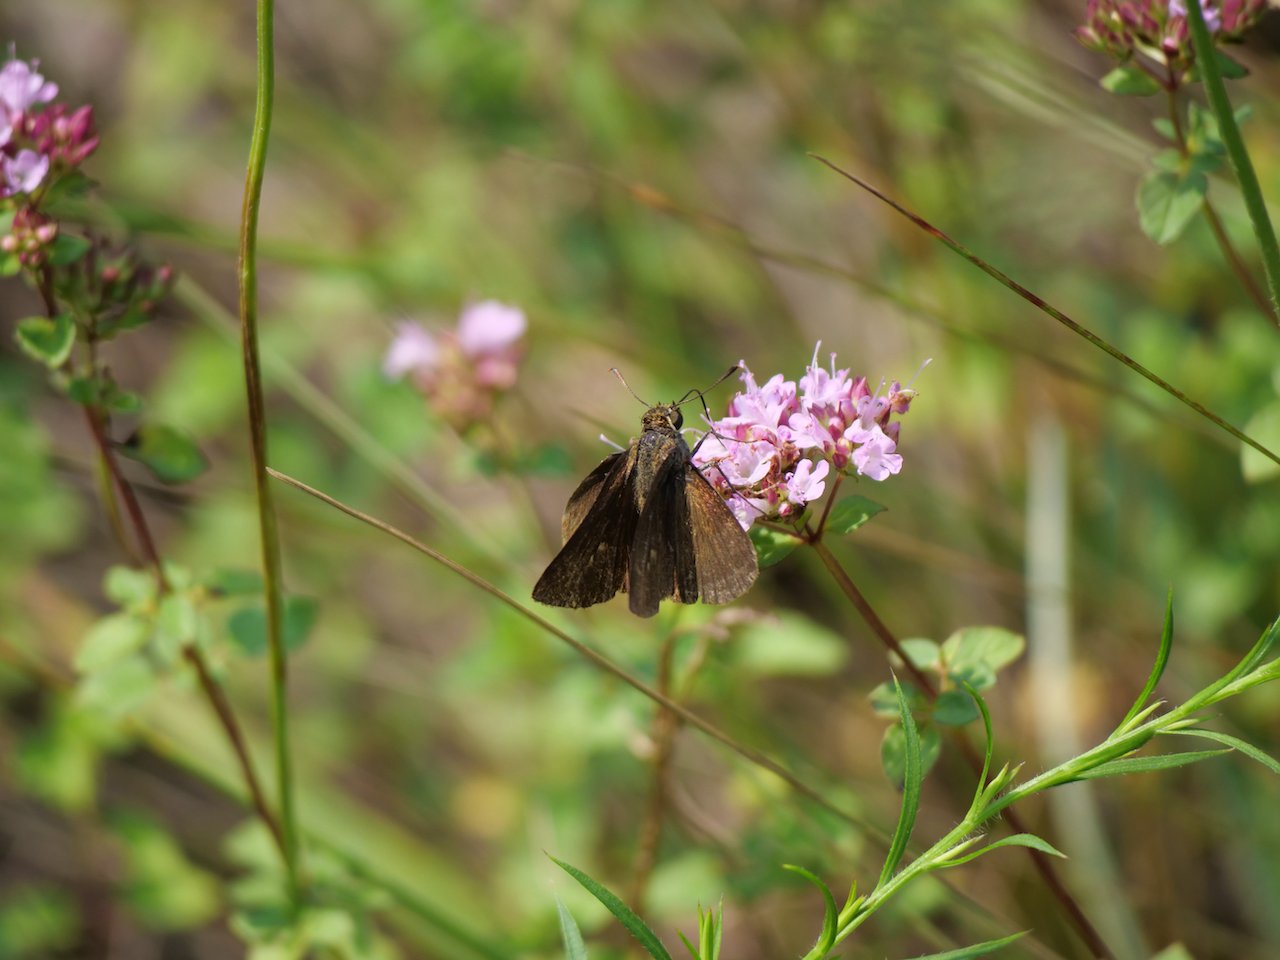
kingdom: Animalia
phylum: Arthropoda
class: Insecta
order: Lepidoptera
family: Hesperiidae
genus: Euphyes
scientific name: Euphyes vestris
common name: Dun Skipper
